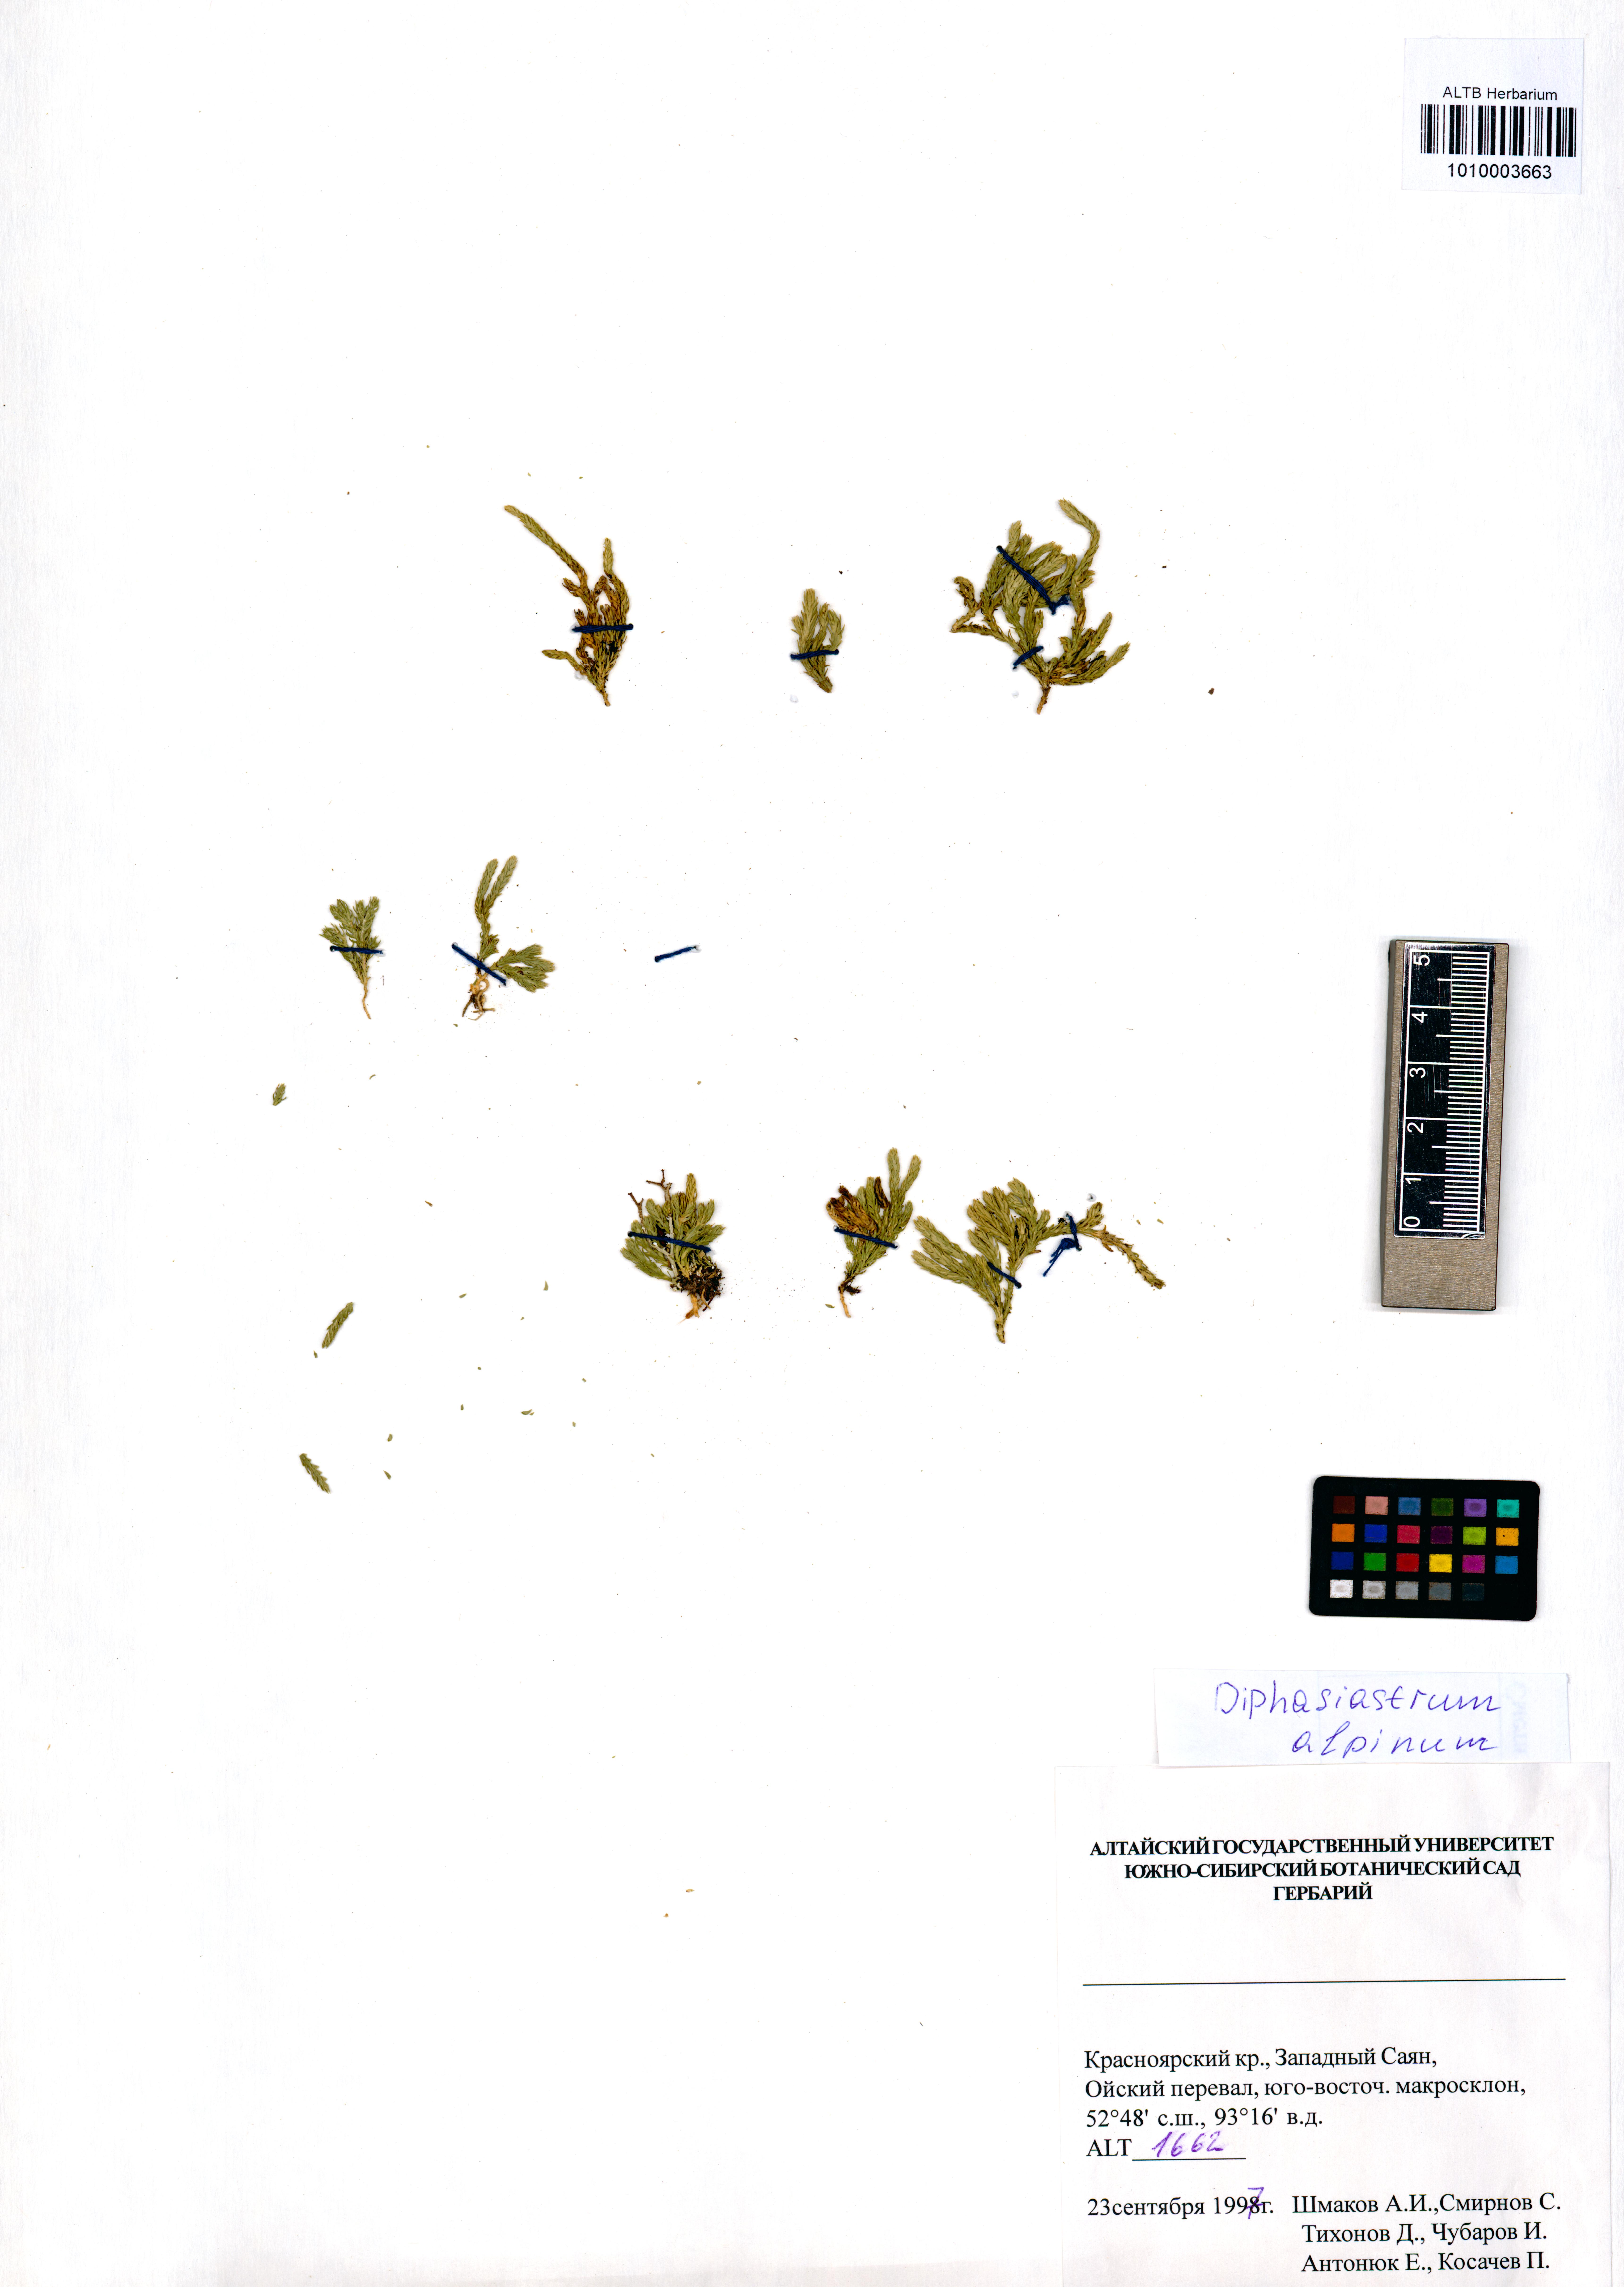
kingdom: Plantae
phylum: Tracheophyta
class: Lycopodiopsida
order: Lycopodiales
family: Lycopodiaceae
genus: Diphasiastrum
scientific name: Diphasiastrum alpinum
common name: Alpine clubmoss
